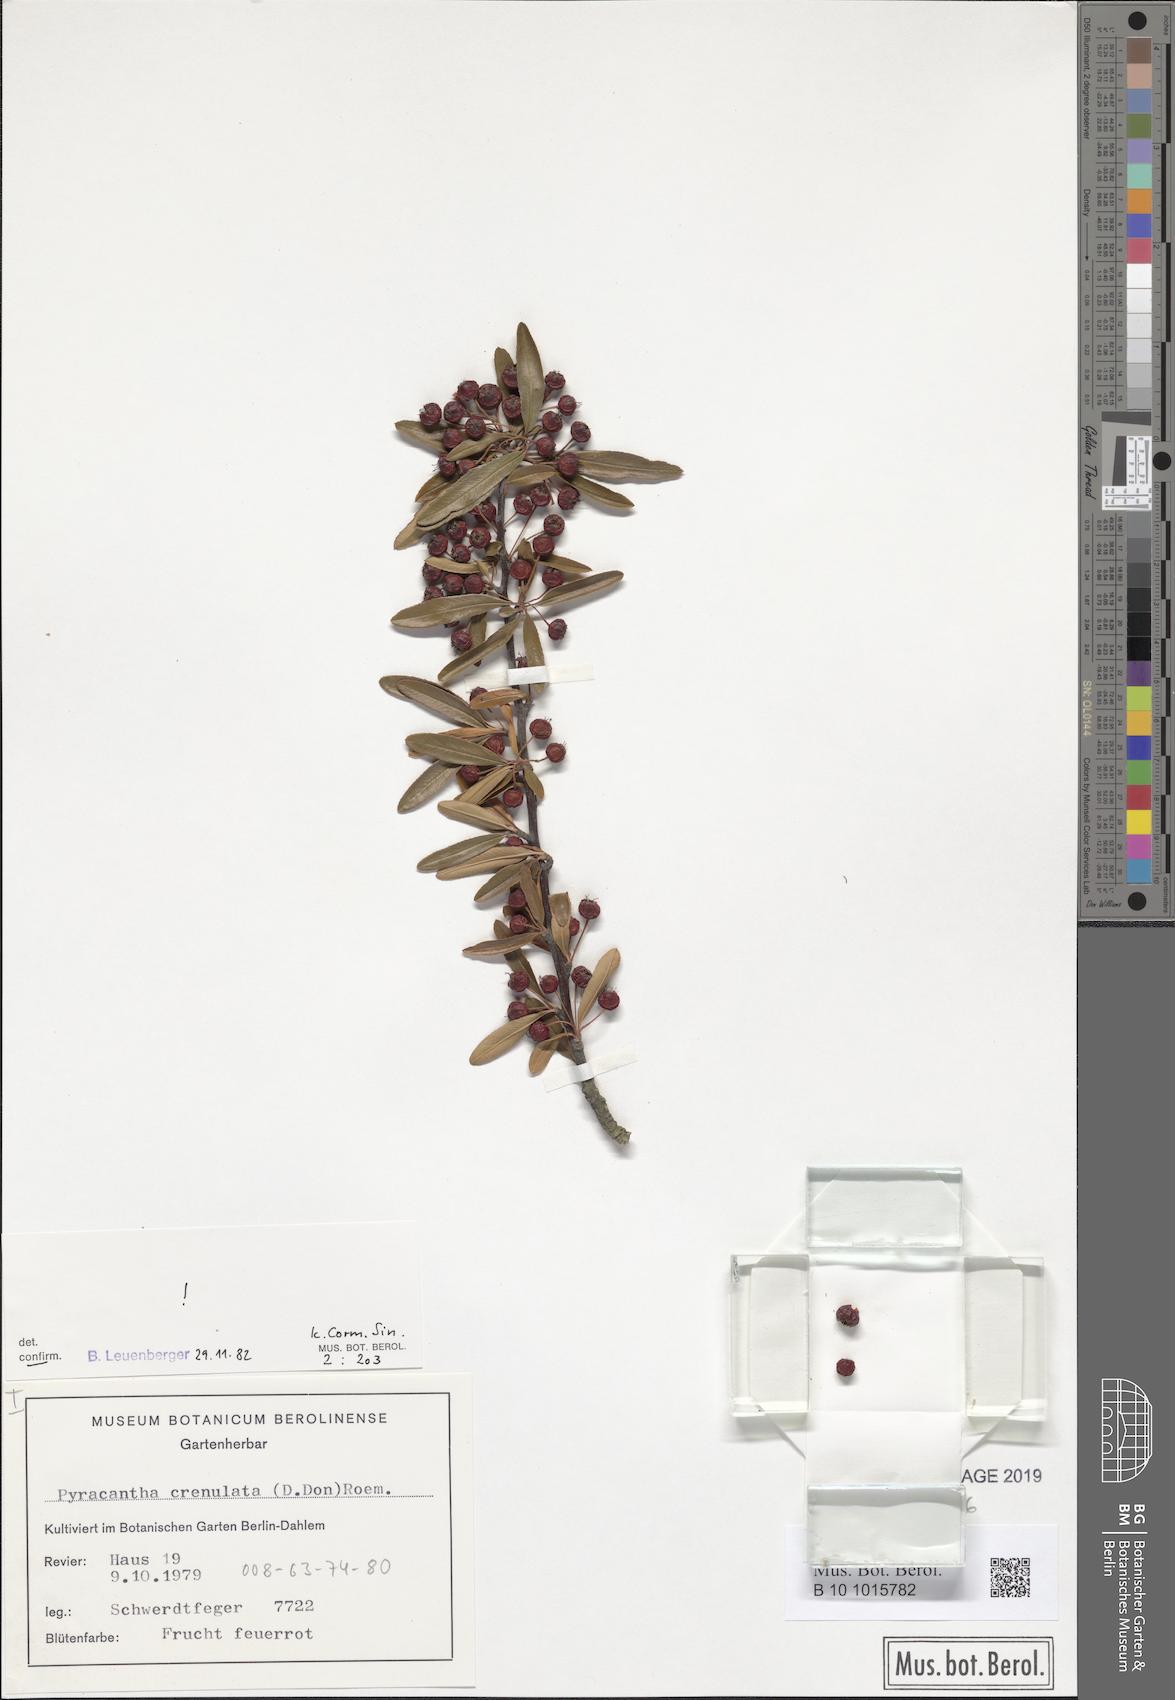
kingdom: Plantae
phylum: Tracheophyta
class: Magnoliopsida
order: Rosales
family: Rosaceae
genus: Pyracantha
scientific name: Pyracantha crenulata
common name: Nepalese firethorn
